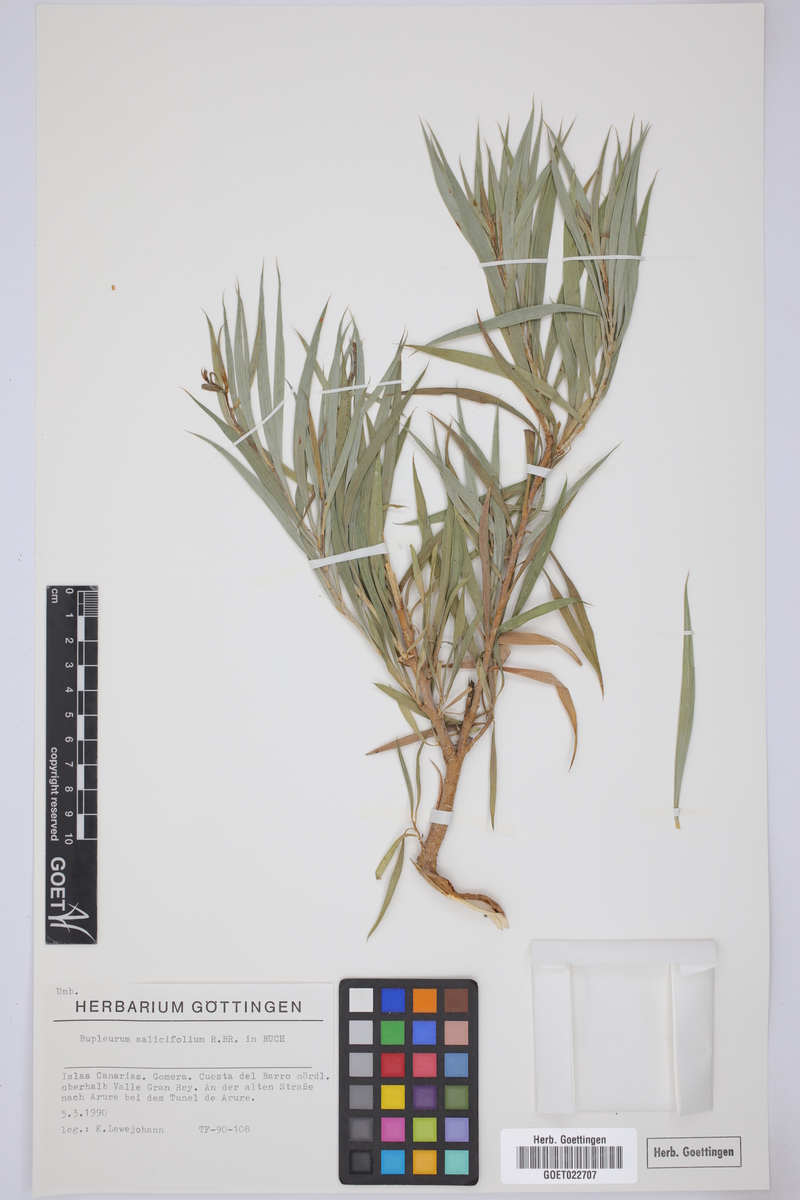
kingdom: Plantae
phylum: Tracheophyta
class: Magnoliopsida
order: Apiales
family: Apiaceae
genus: Bupleurum
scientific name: Bupleurum salicifolium
